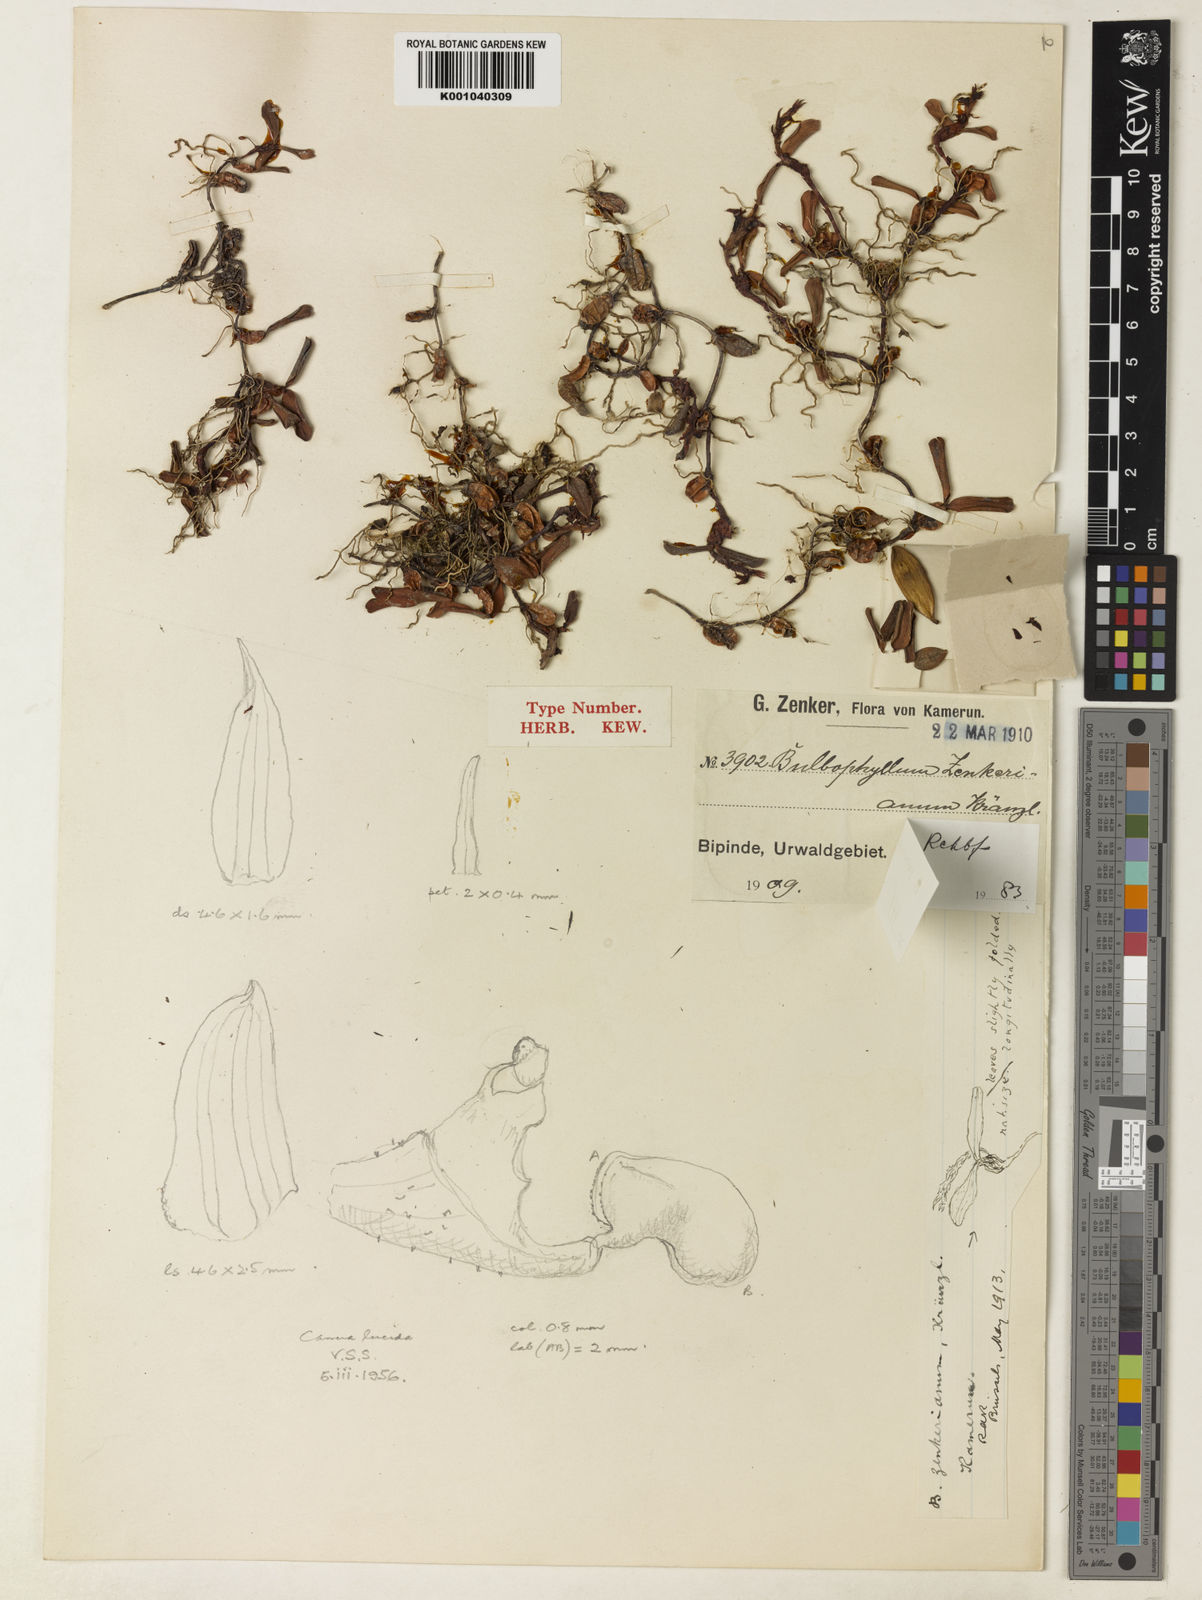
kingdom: Plantae
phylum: Tracheophyta
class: Liliopsida
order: Asparagales
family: Orchidaceae
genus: Bulbophyllum
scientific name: Bulbophyllum oreonastes
